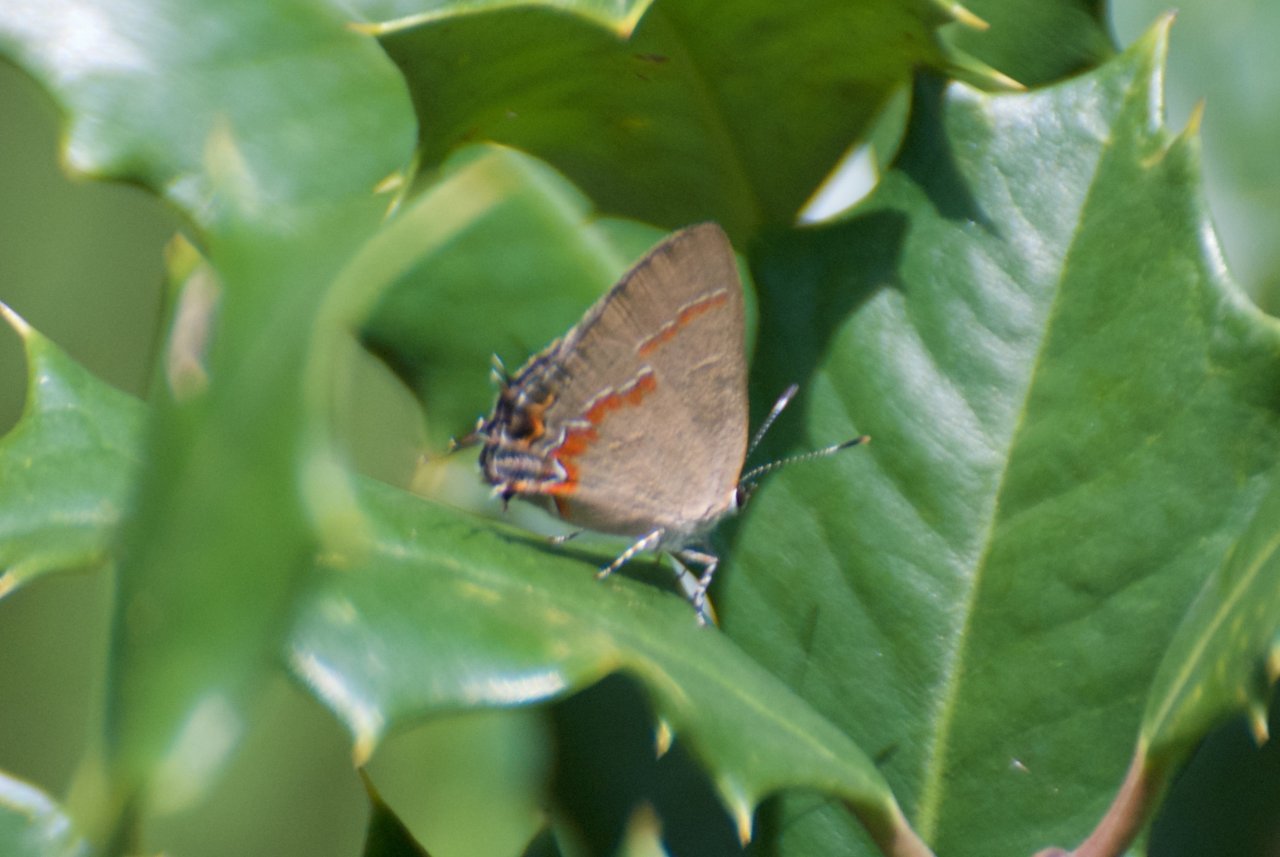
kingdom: Animalia
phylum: Arthropoda
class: Insecta
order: Lepidoptera
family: Lycaenidae
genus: Calycopis
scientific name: Calycopis cecrops
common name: Red-banded Hairstreak
